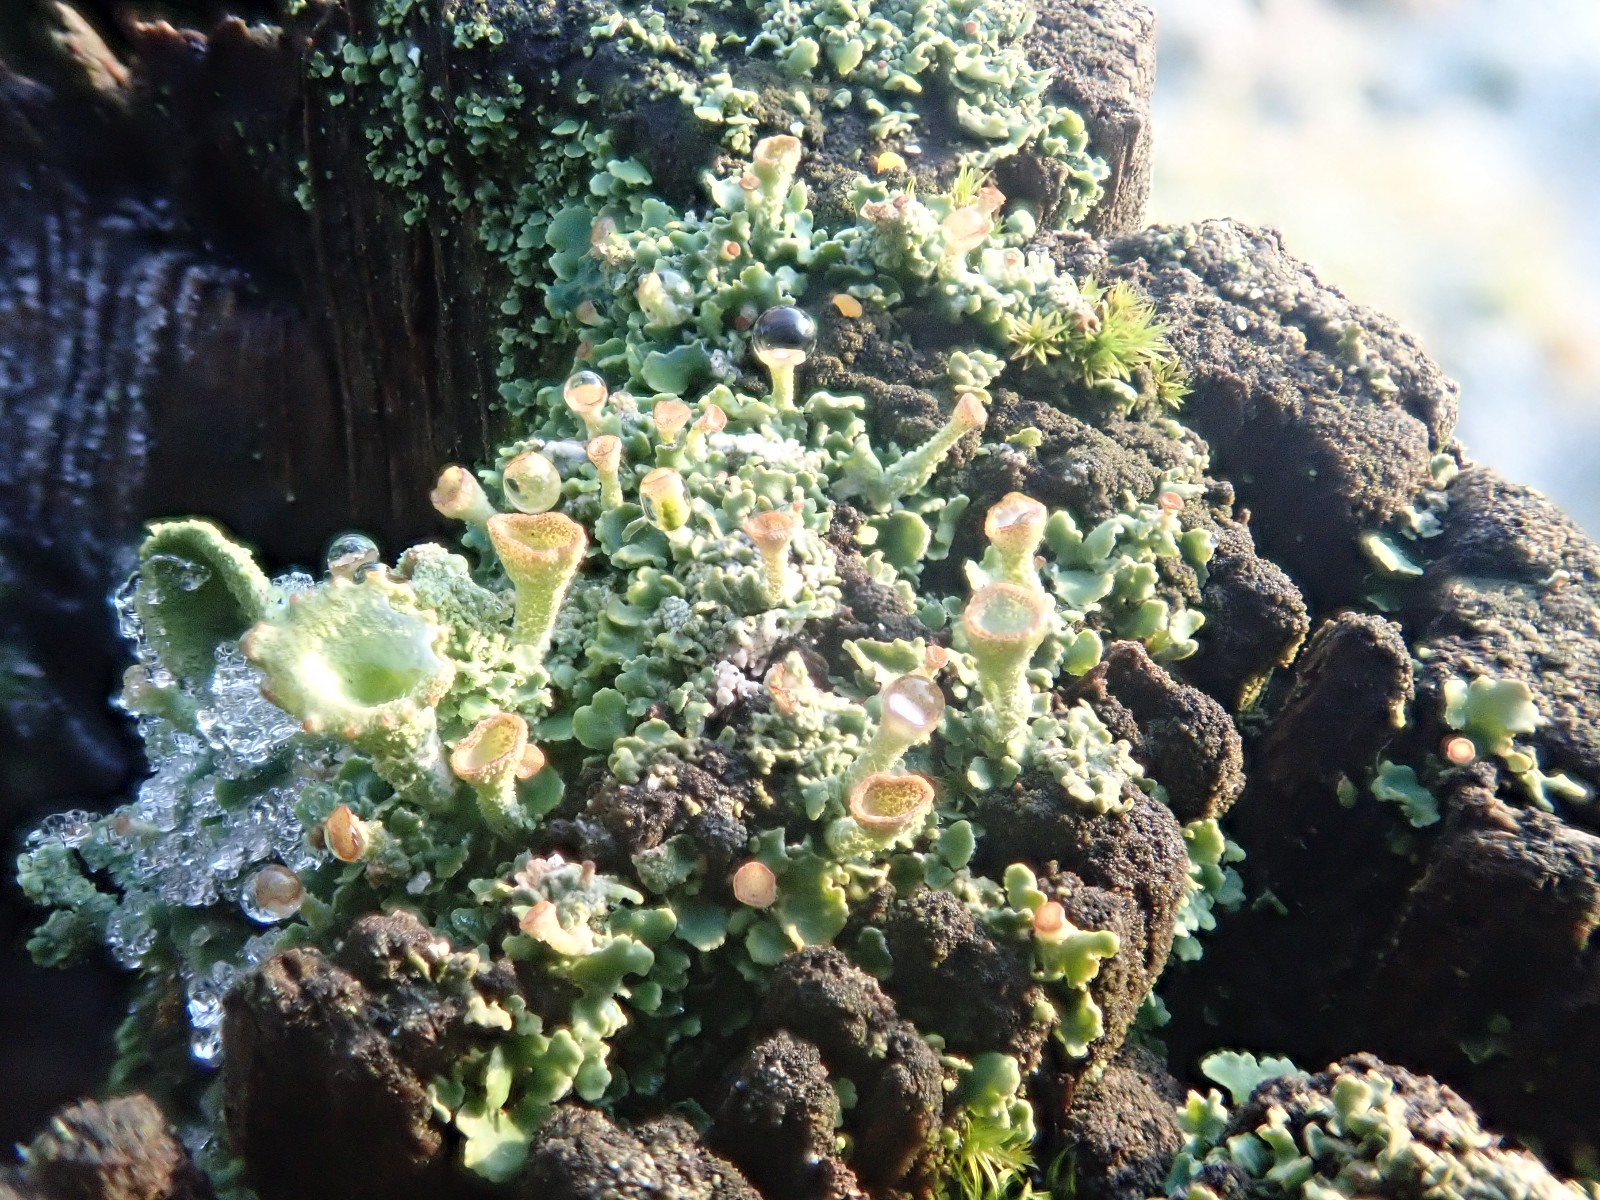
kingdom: Fungi
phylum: Ascomycota
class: Lecanoromycetes
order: Lecanorales
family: Cladoniaceae
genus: Cladonia
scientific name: Cladonia
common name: brungrøn bægerlav
